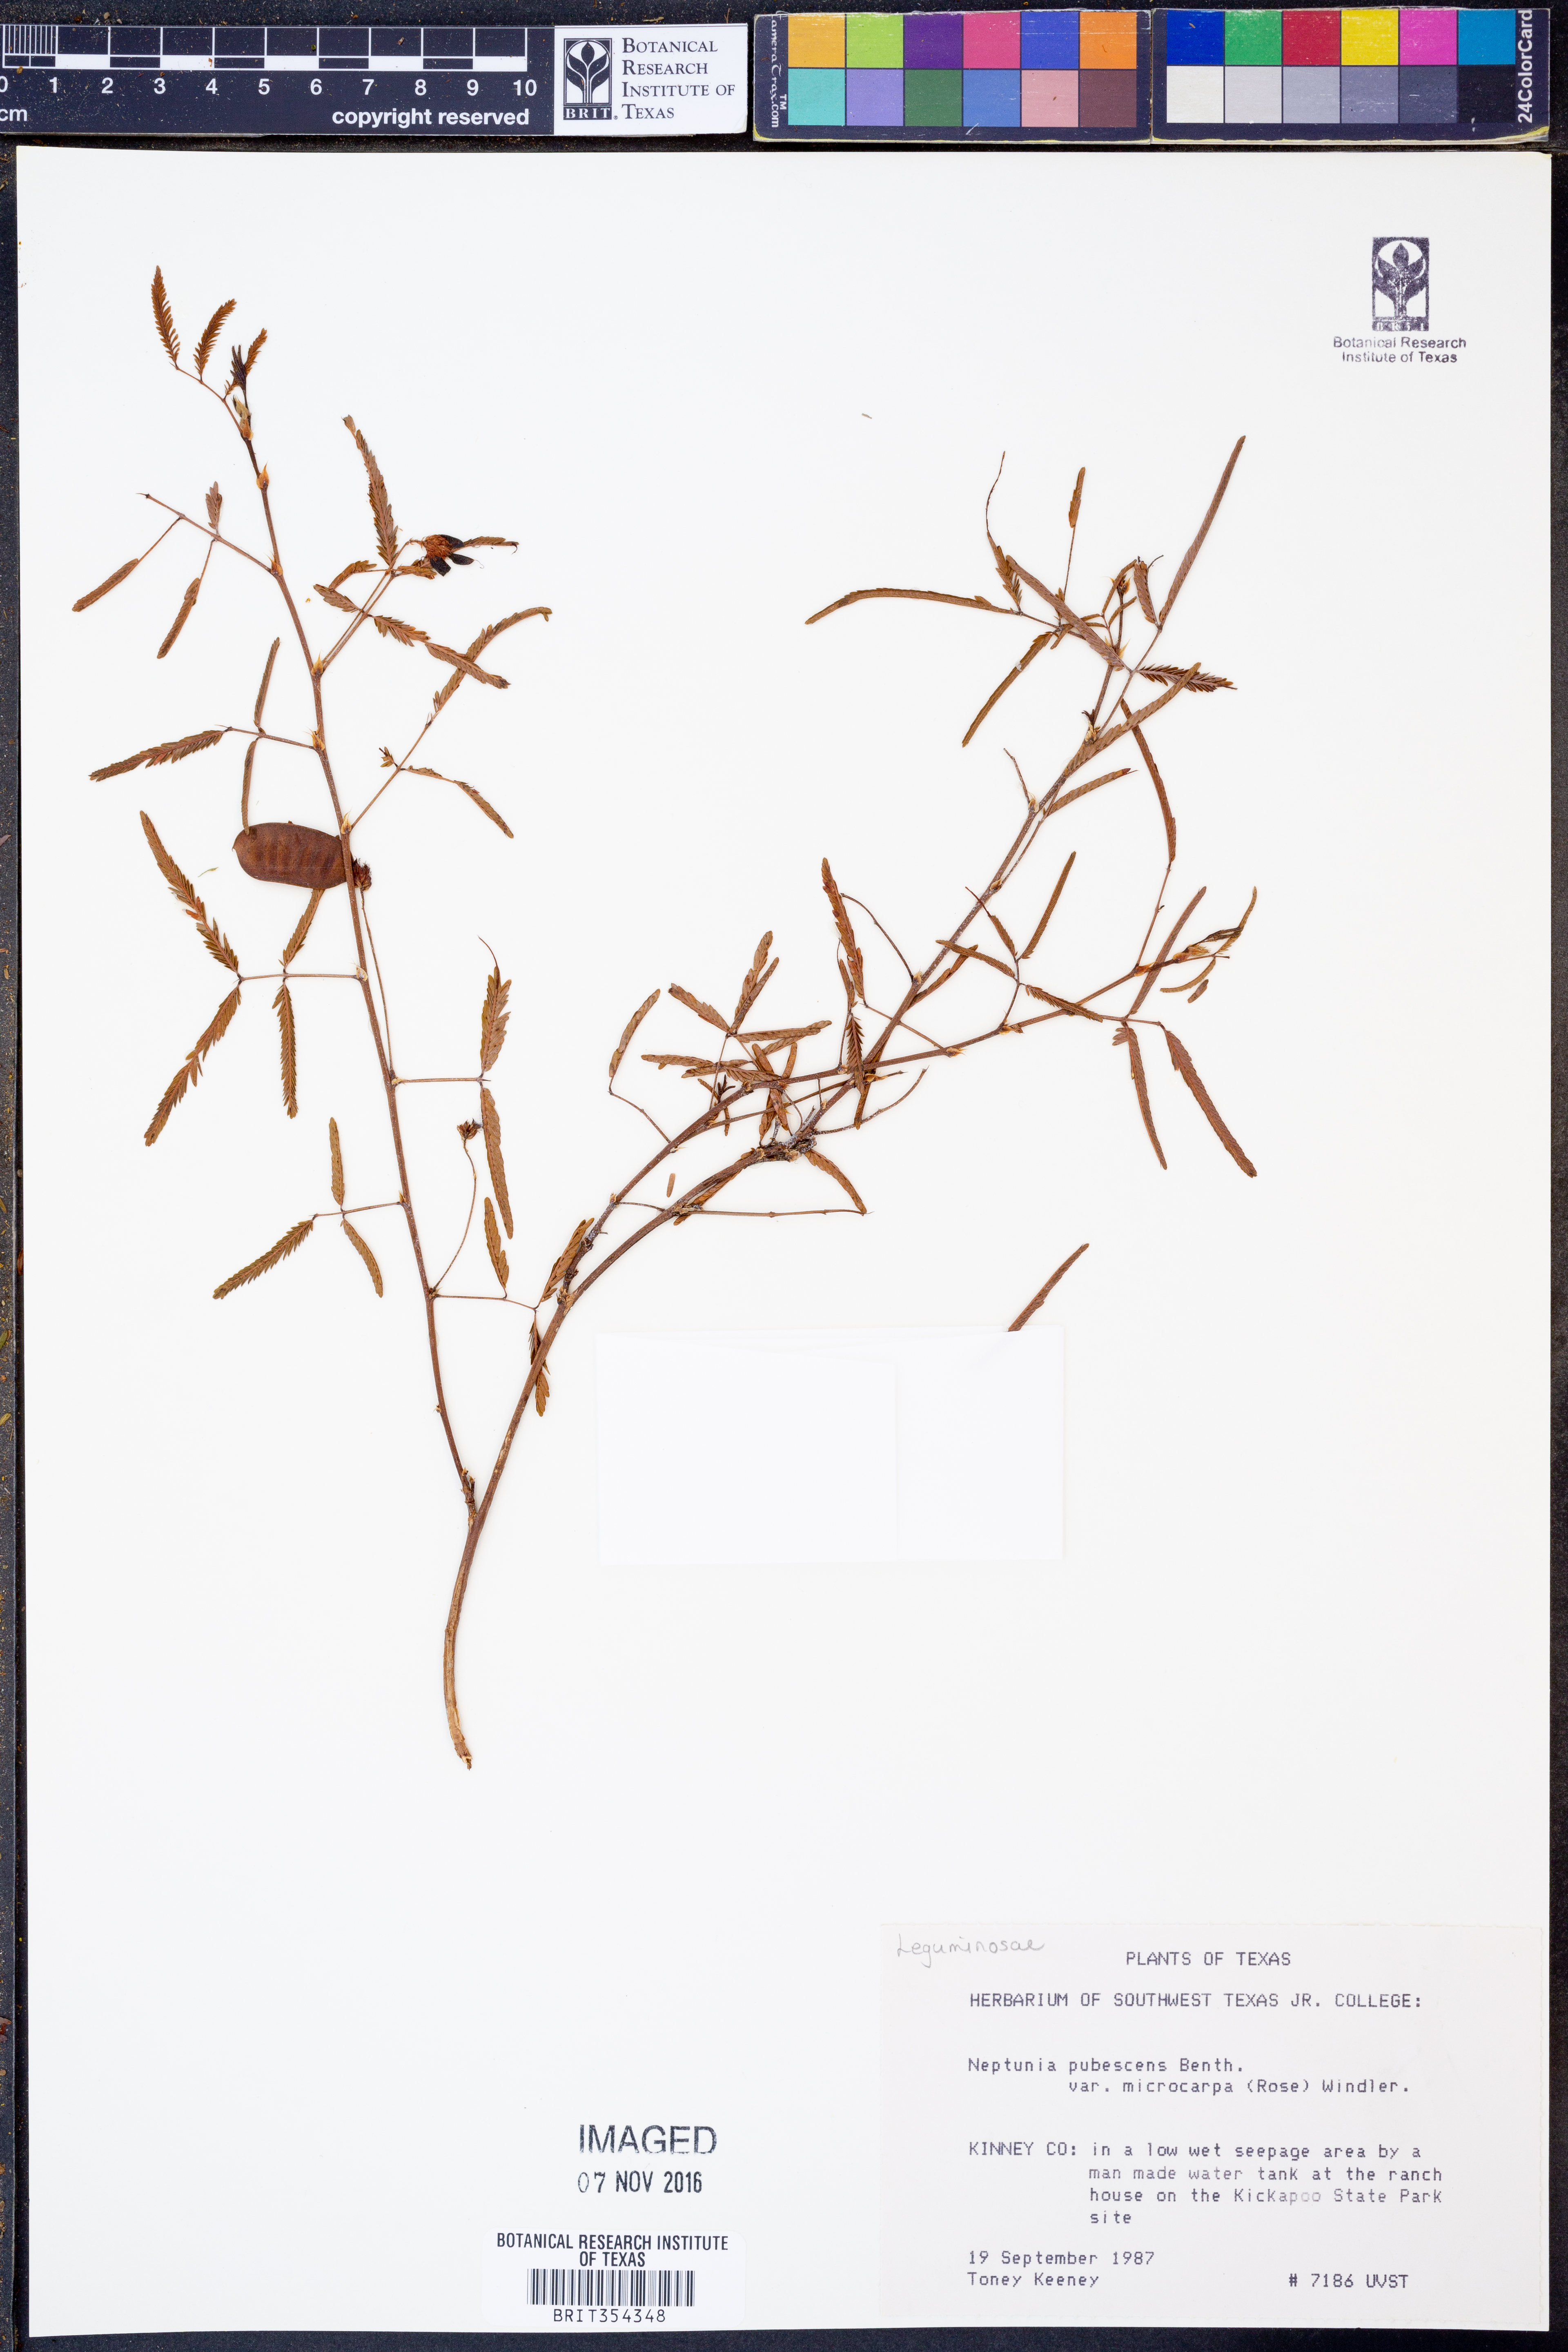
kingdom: Plantae
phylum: Tracheophyta
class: Magnoliopsida
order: Fabales
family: Fabaceae
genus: Neptunia
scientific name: Neptunia pubescens
